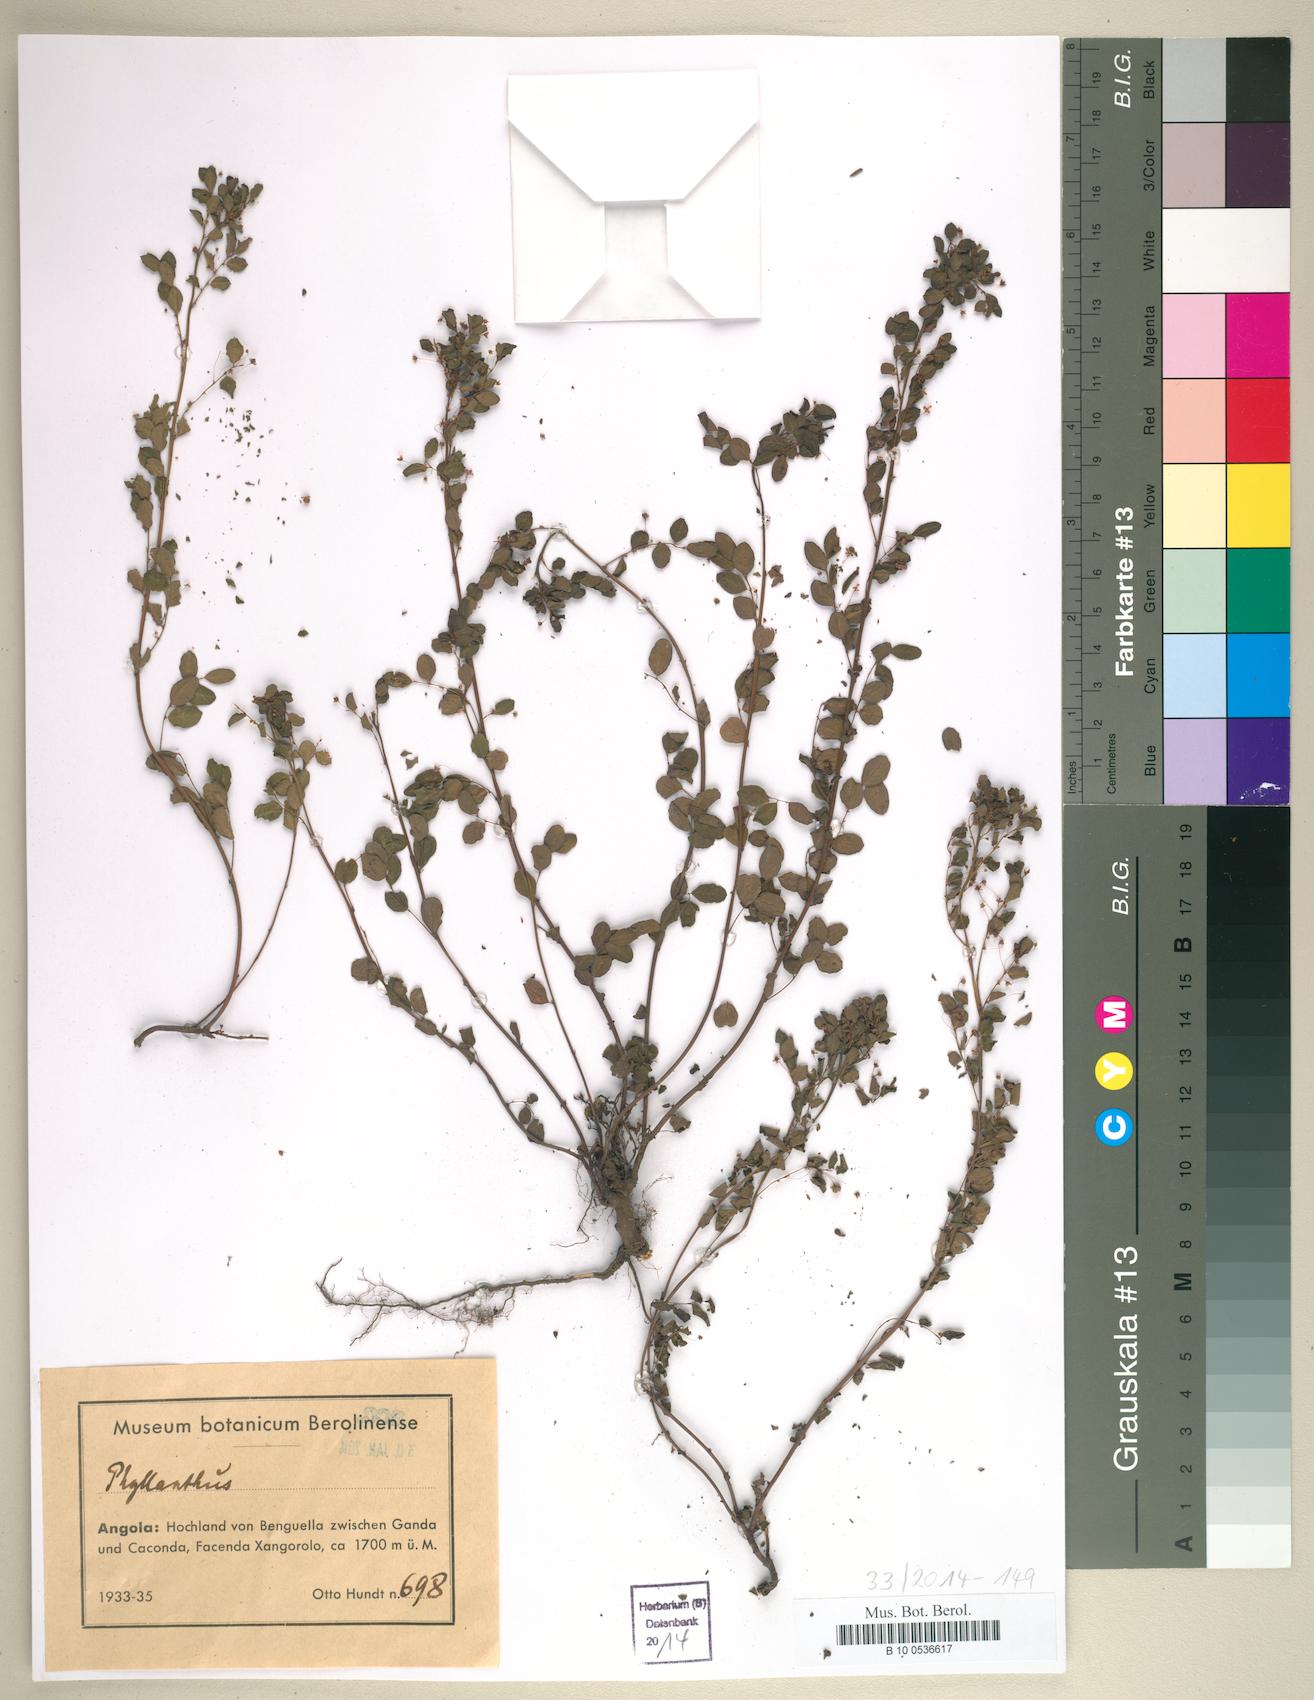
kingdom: Plantae
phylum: Tracheophyta
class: Magnoliopsida
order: Malpighiales
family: Phyllanthaceae
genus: Phyllanthus
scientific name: Phyllanthus
